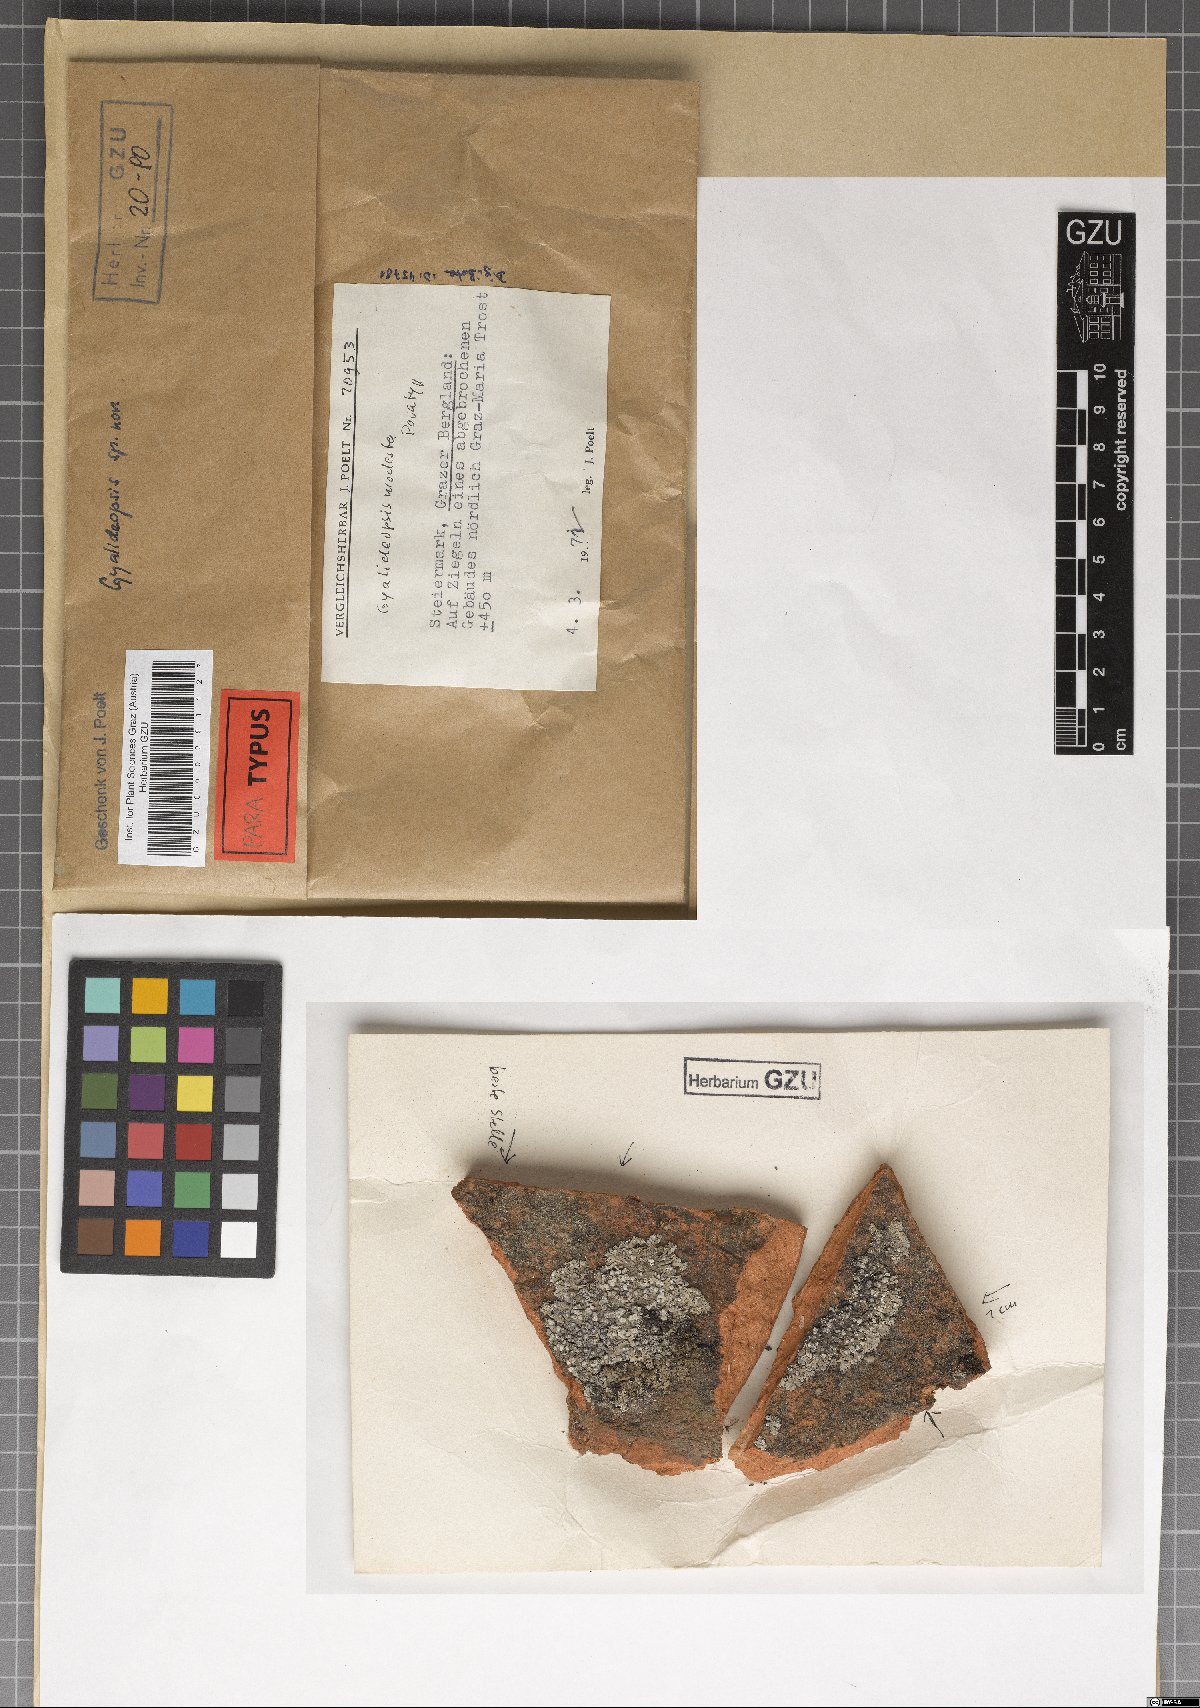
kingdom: Fungi
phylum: Ascomycota
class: Lecanoromycetes
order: Ostropales
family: Gomphillaceae
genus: Gyalideopsis
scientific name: Gyalideopsis
